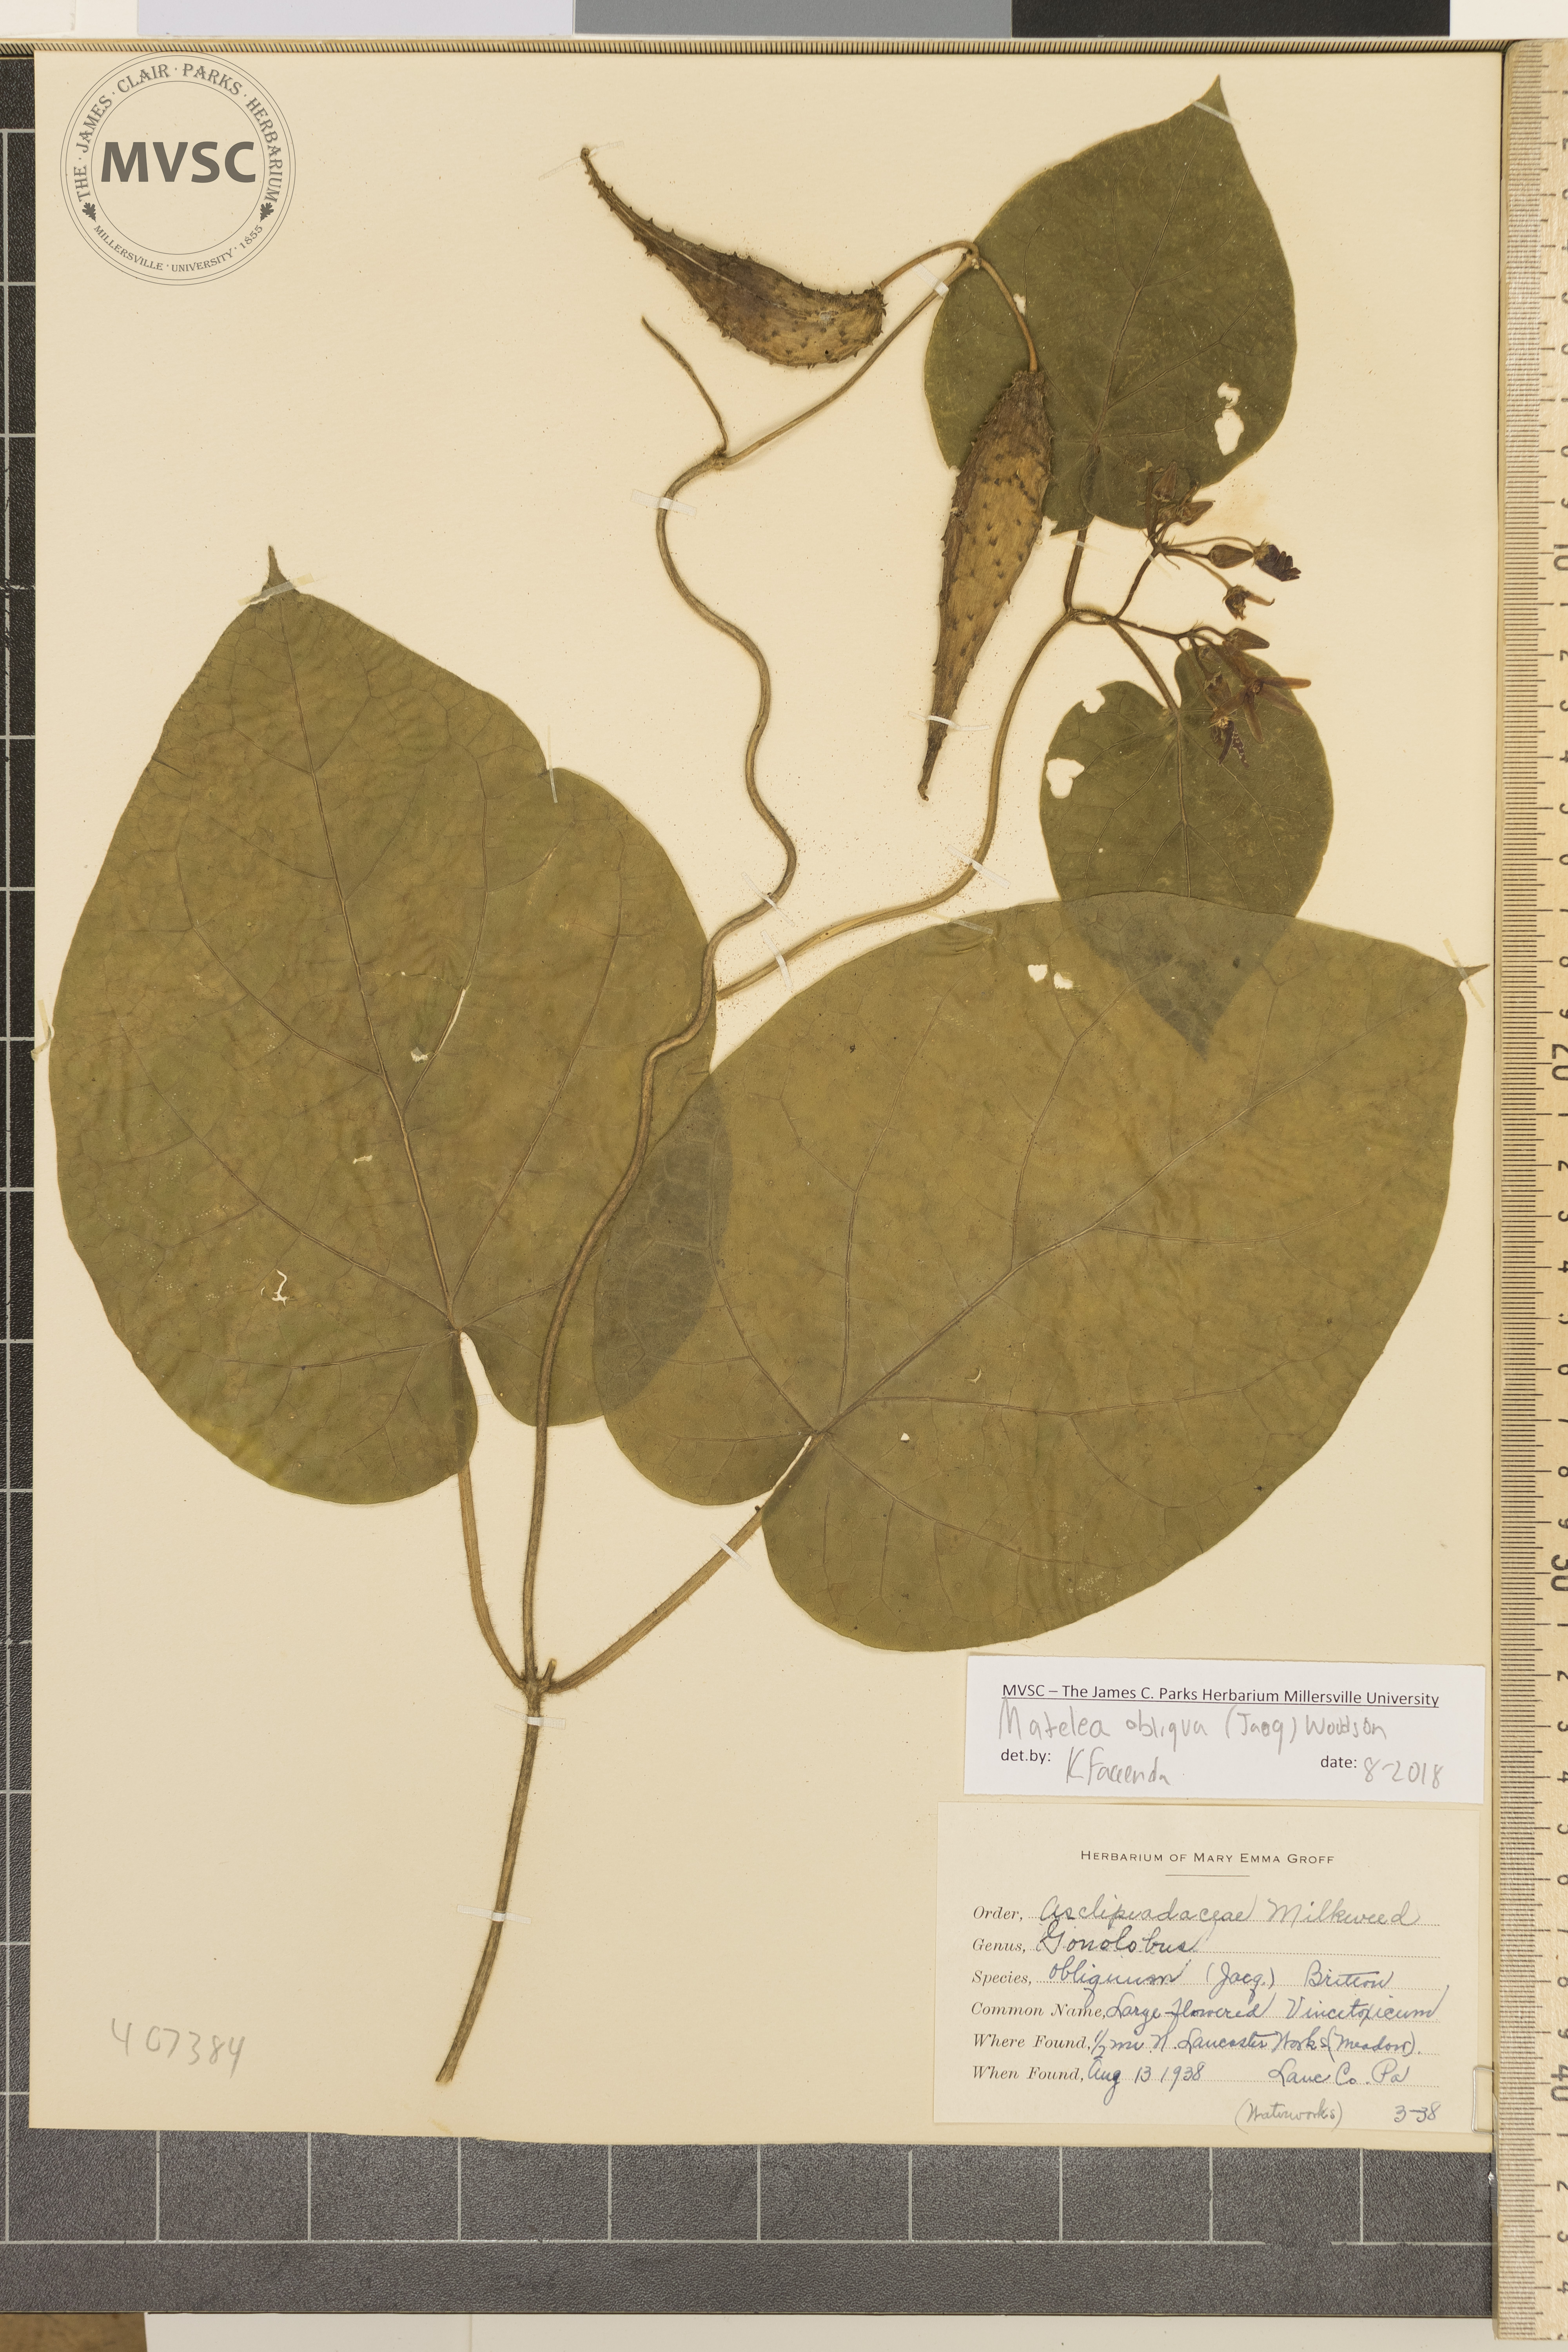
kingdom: Plantae
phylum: Tracheophyta
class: Magnoliopsida
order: Gentianales
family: Apocynaceae
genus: Matelea
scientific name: Matelea obliqua
